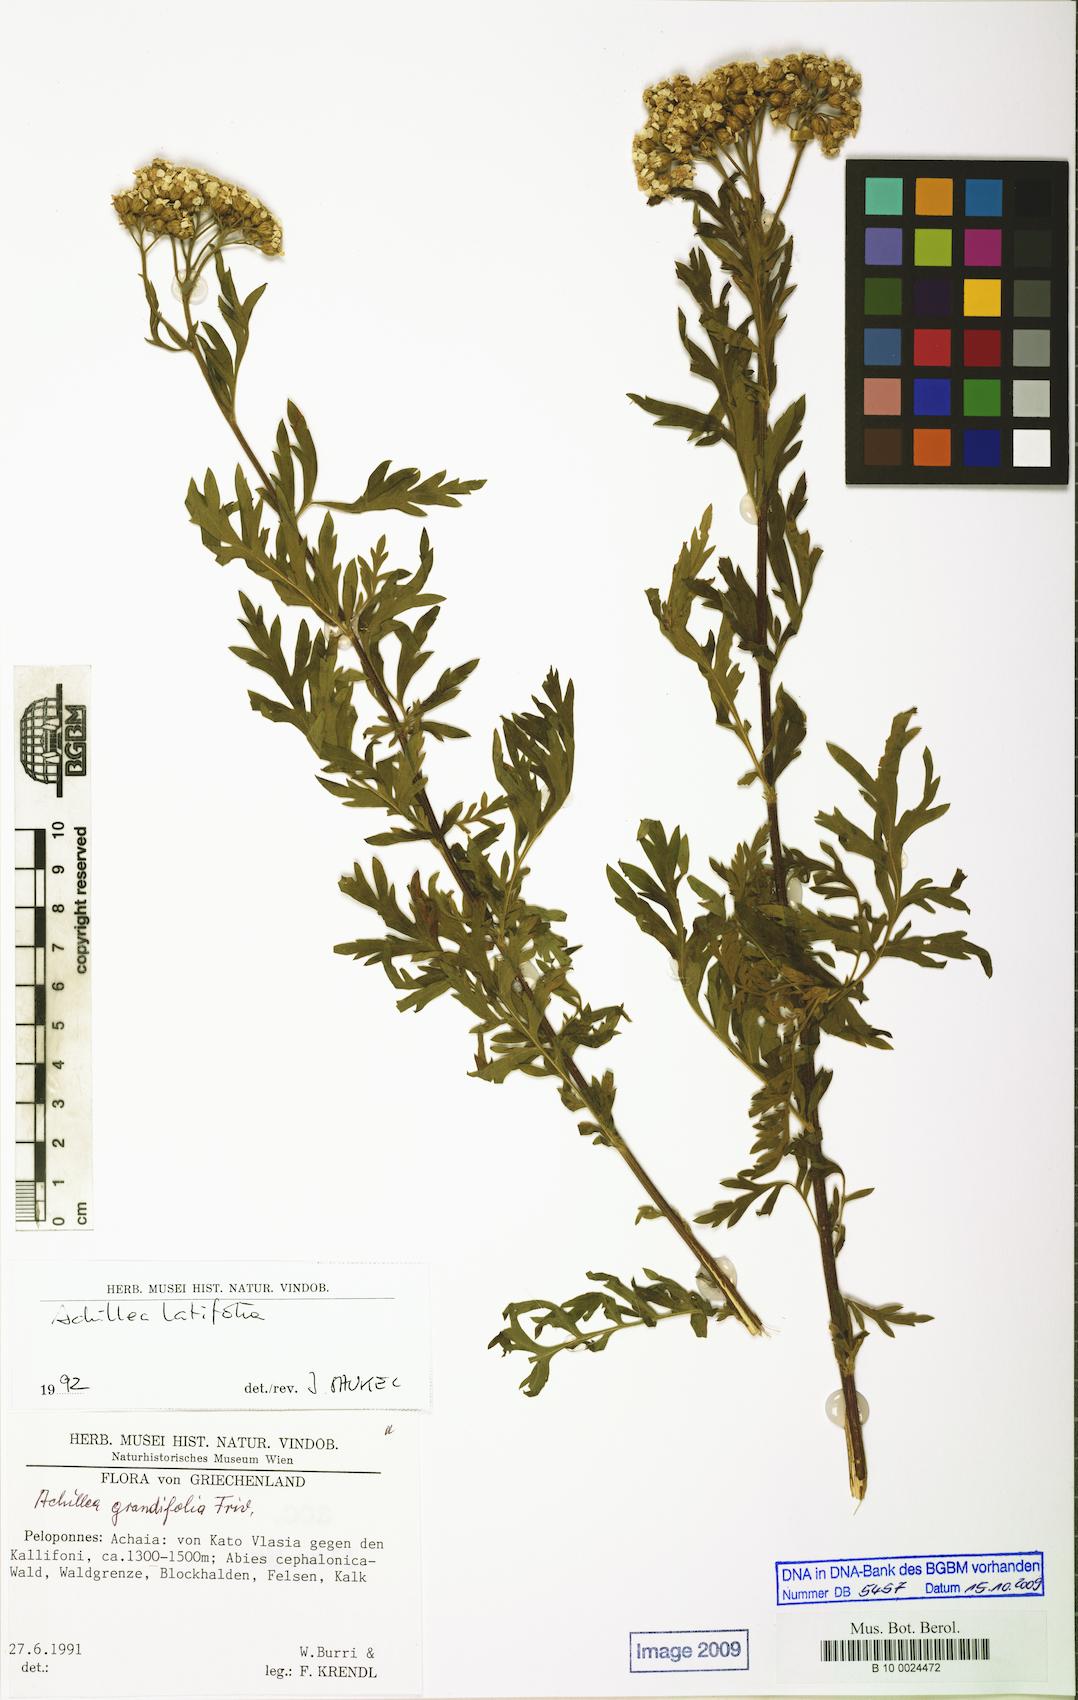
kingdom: Plantae
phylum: Tracheophyta
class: Magnoliopsida
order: Asterales
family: Asteraceae
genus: Achillea
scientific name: Achillea macrophylla
